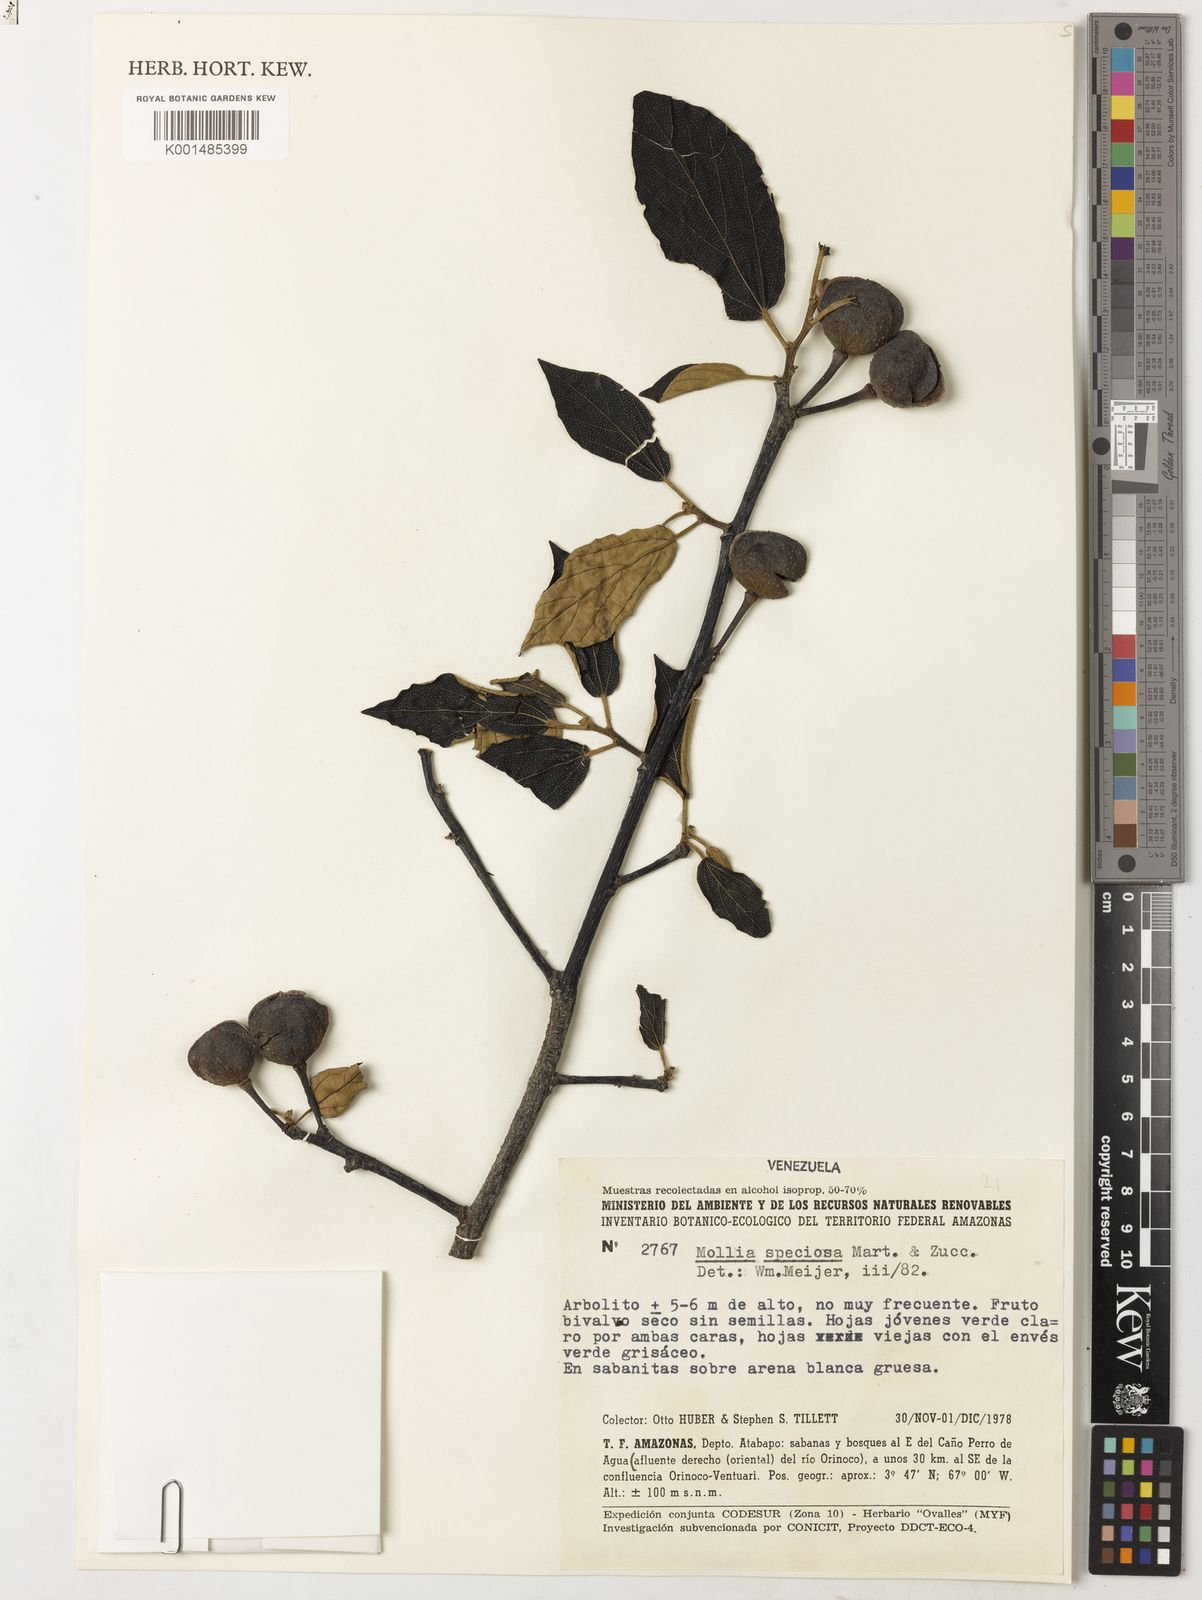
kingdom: Plantae
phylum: Tracheophyta
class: Magnoliopsida
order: Malvales
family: Malvaceae
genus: Mollia
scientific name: Mollia speciosa
